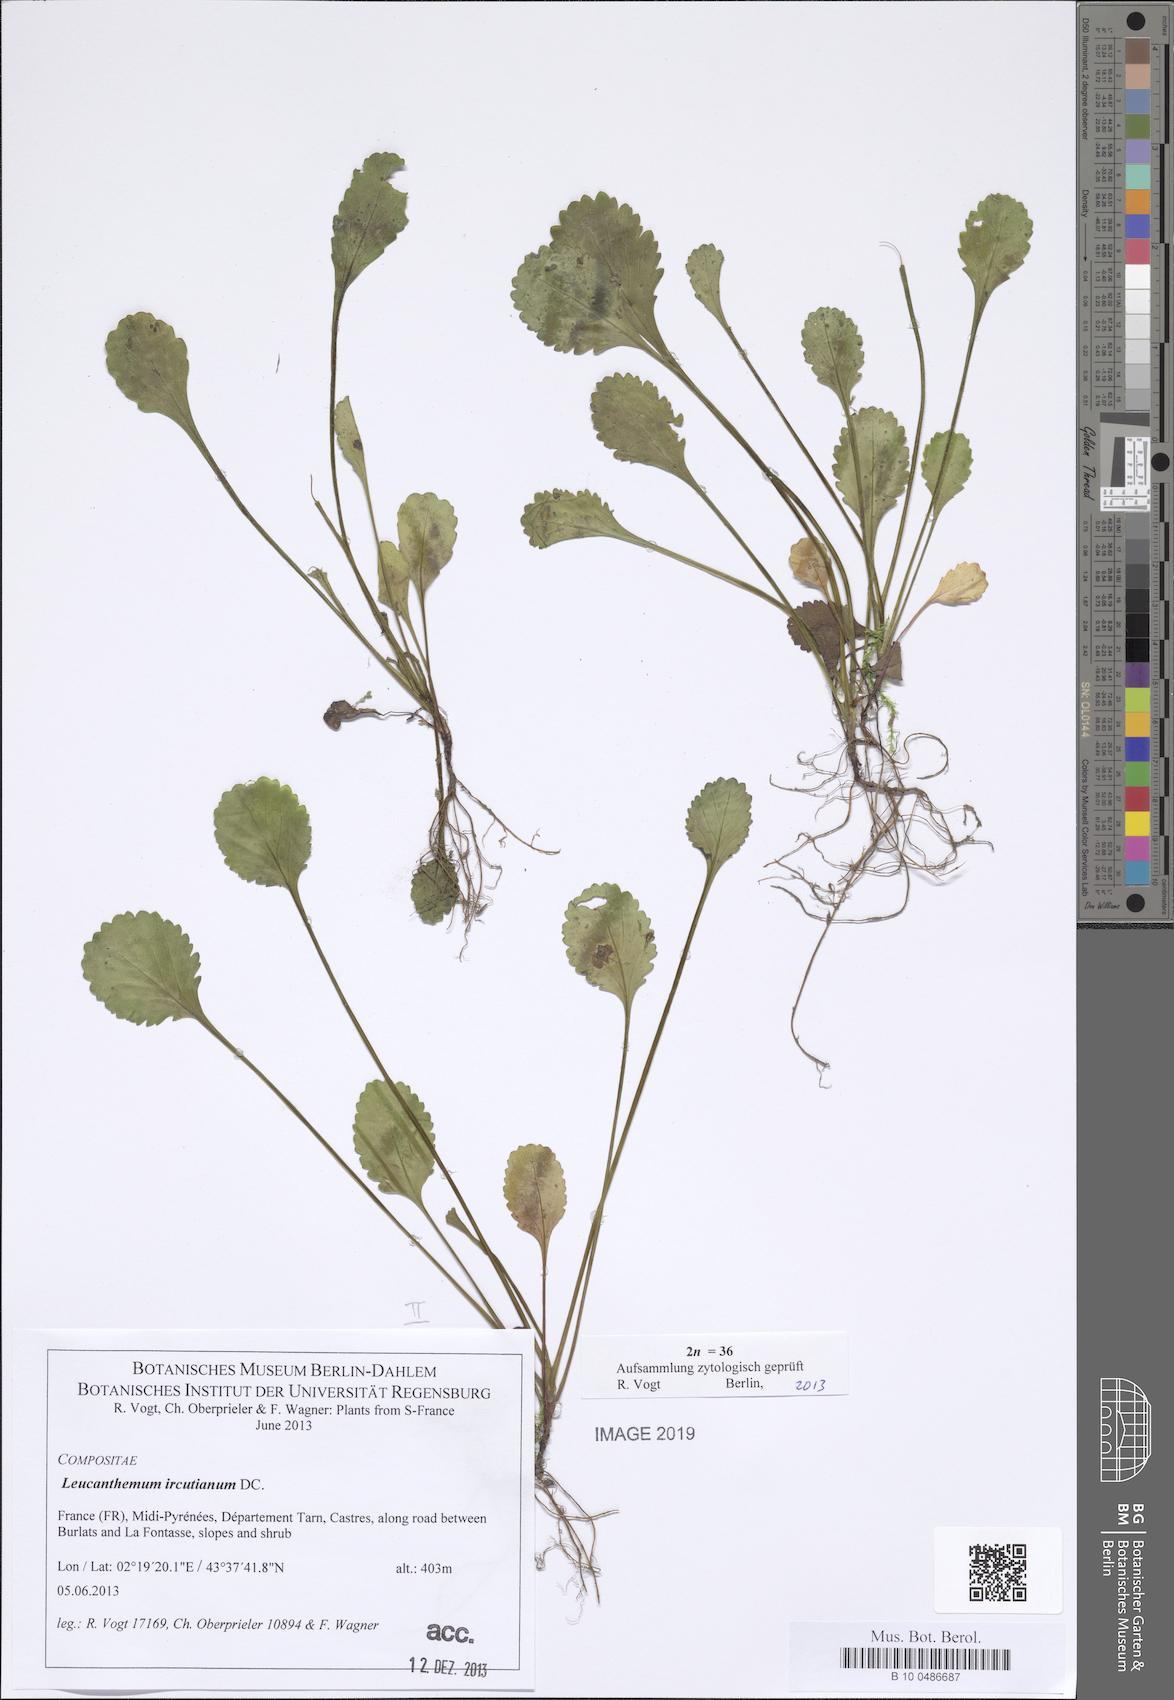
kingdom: Plantae
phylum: Tracheophyta
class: Magnoliopsida
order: Asterales
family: Asteraceae
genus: Leucanthemum
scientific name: Leucanthemum ircutianum
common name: Daisy
